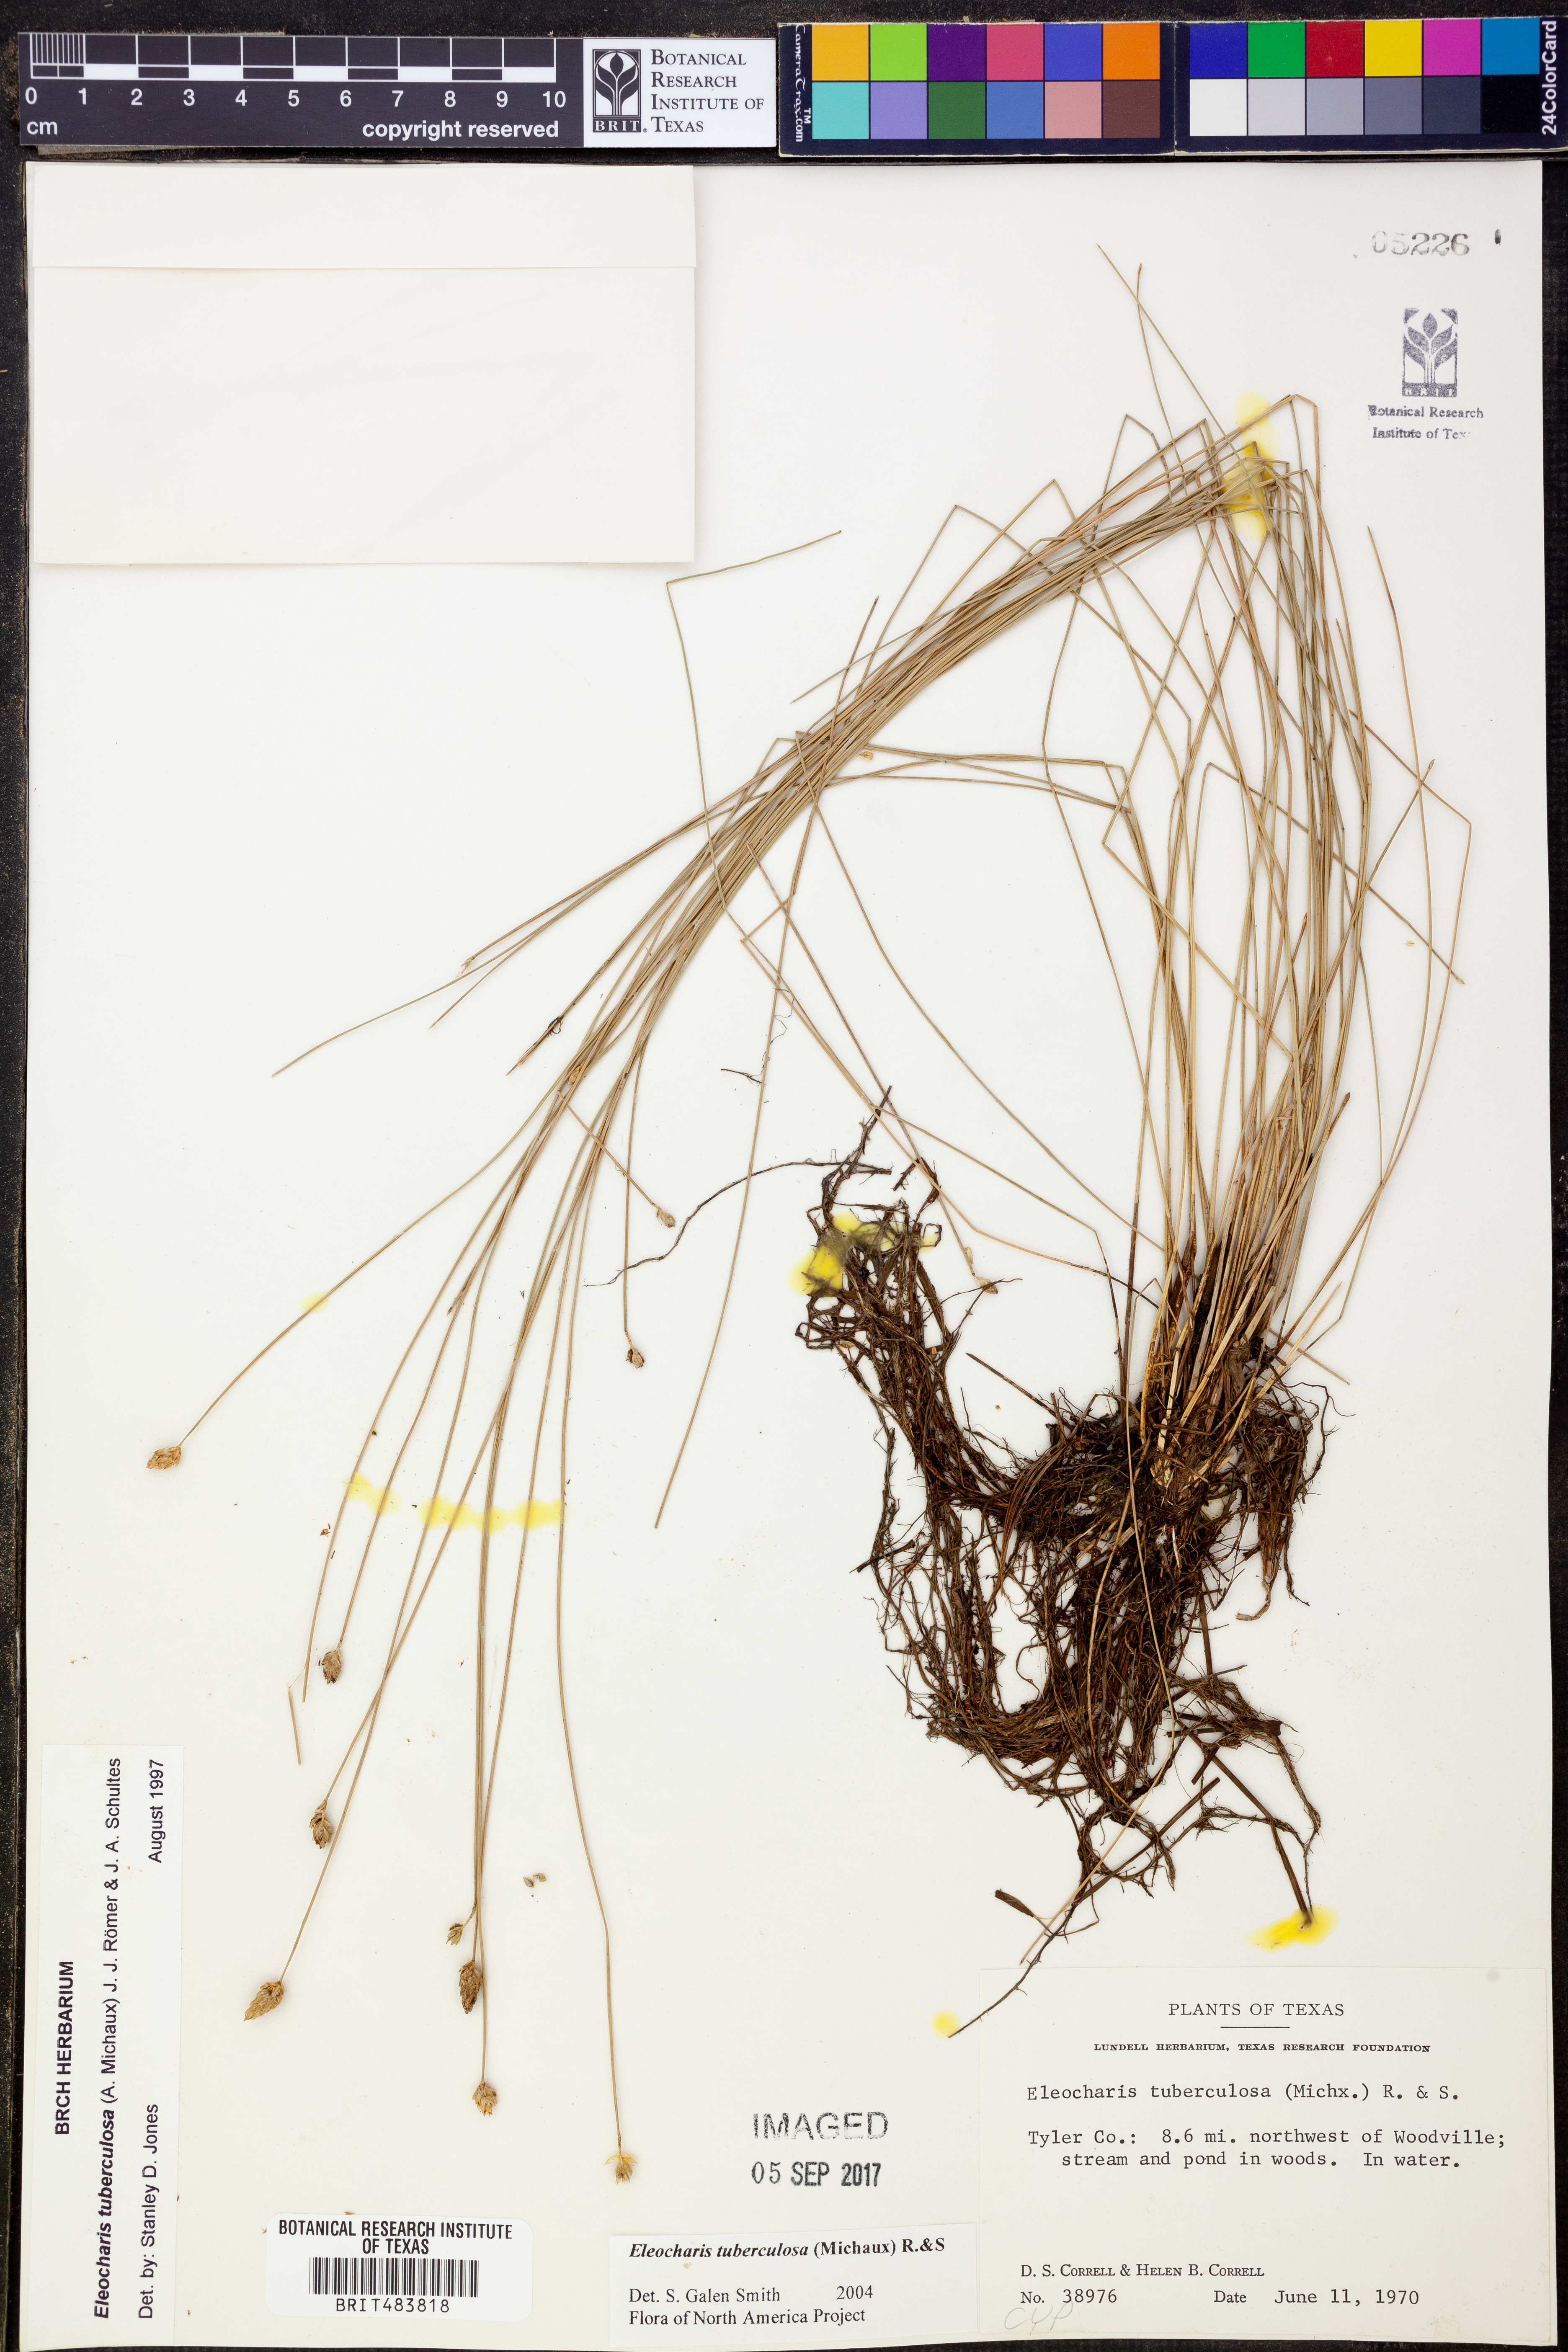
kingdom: Plantae
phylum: Tracheophyta
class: Liliopsida
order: Poales
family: Cyperaceae
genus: Eleocharis
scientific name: Eleocharis tuberculosa
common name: Cone-cup spikerush
